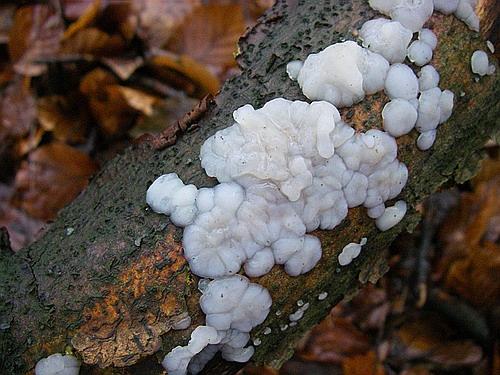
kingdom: Fungi
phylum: Basidiomycota
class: Agaricomycetes
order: Auriculariales
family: Auriculariaceae
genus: Exidia
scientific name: Exidia thuretiana
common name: hvidlig bævretop
